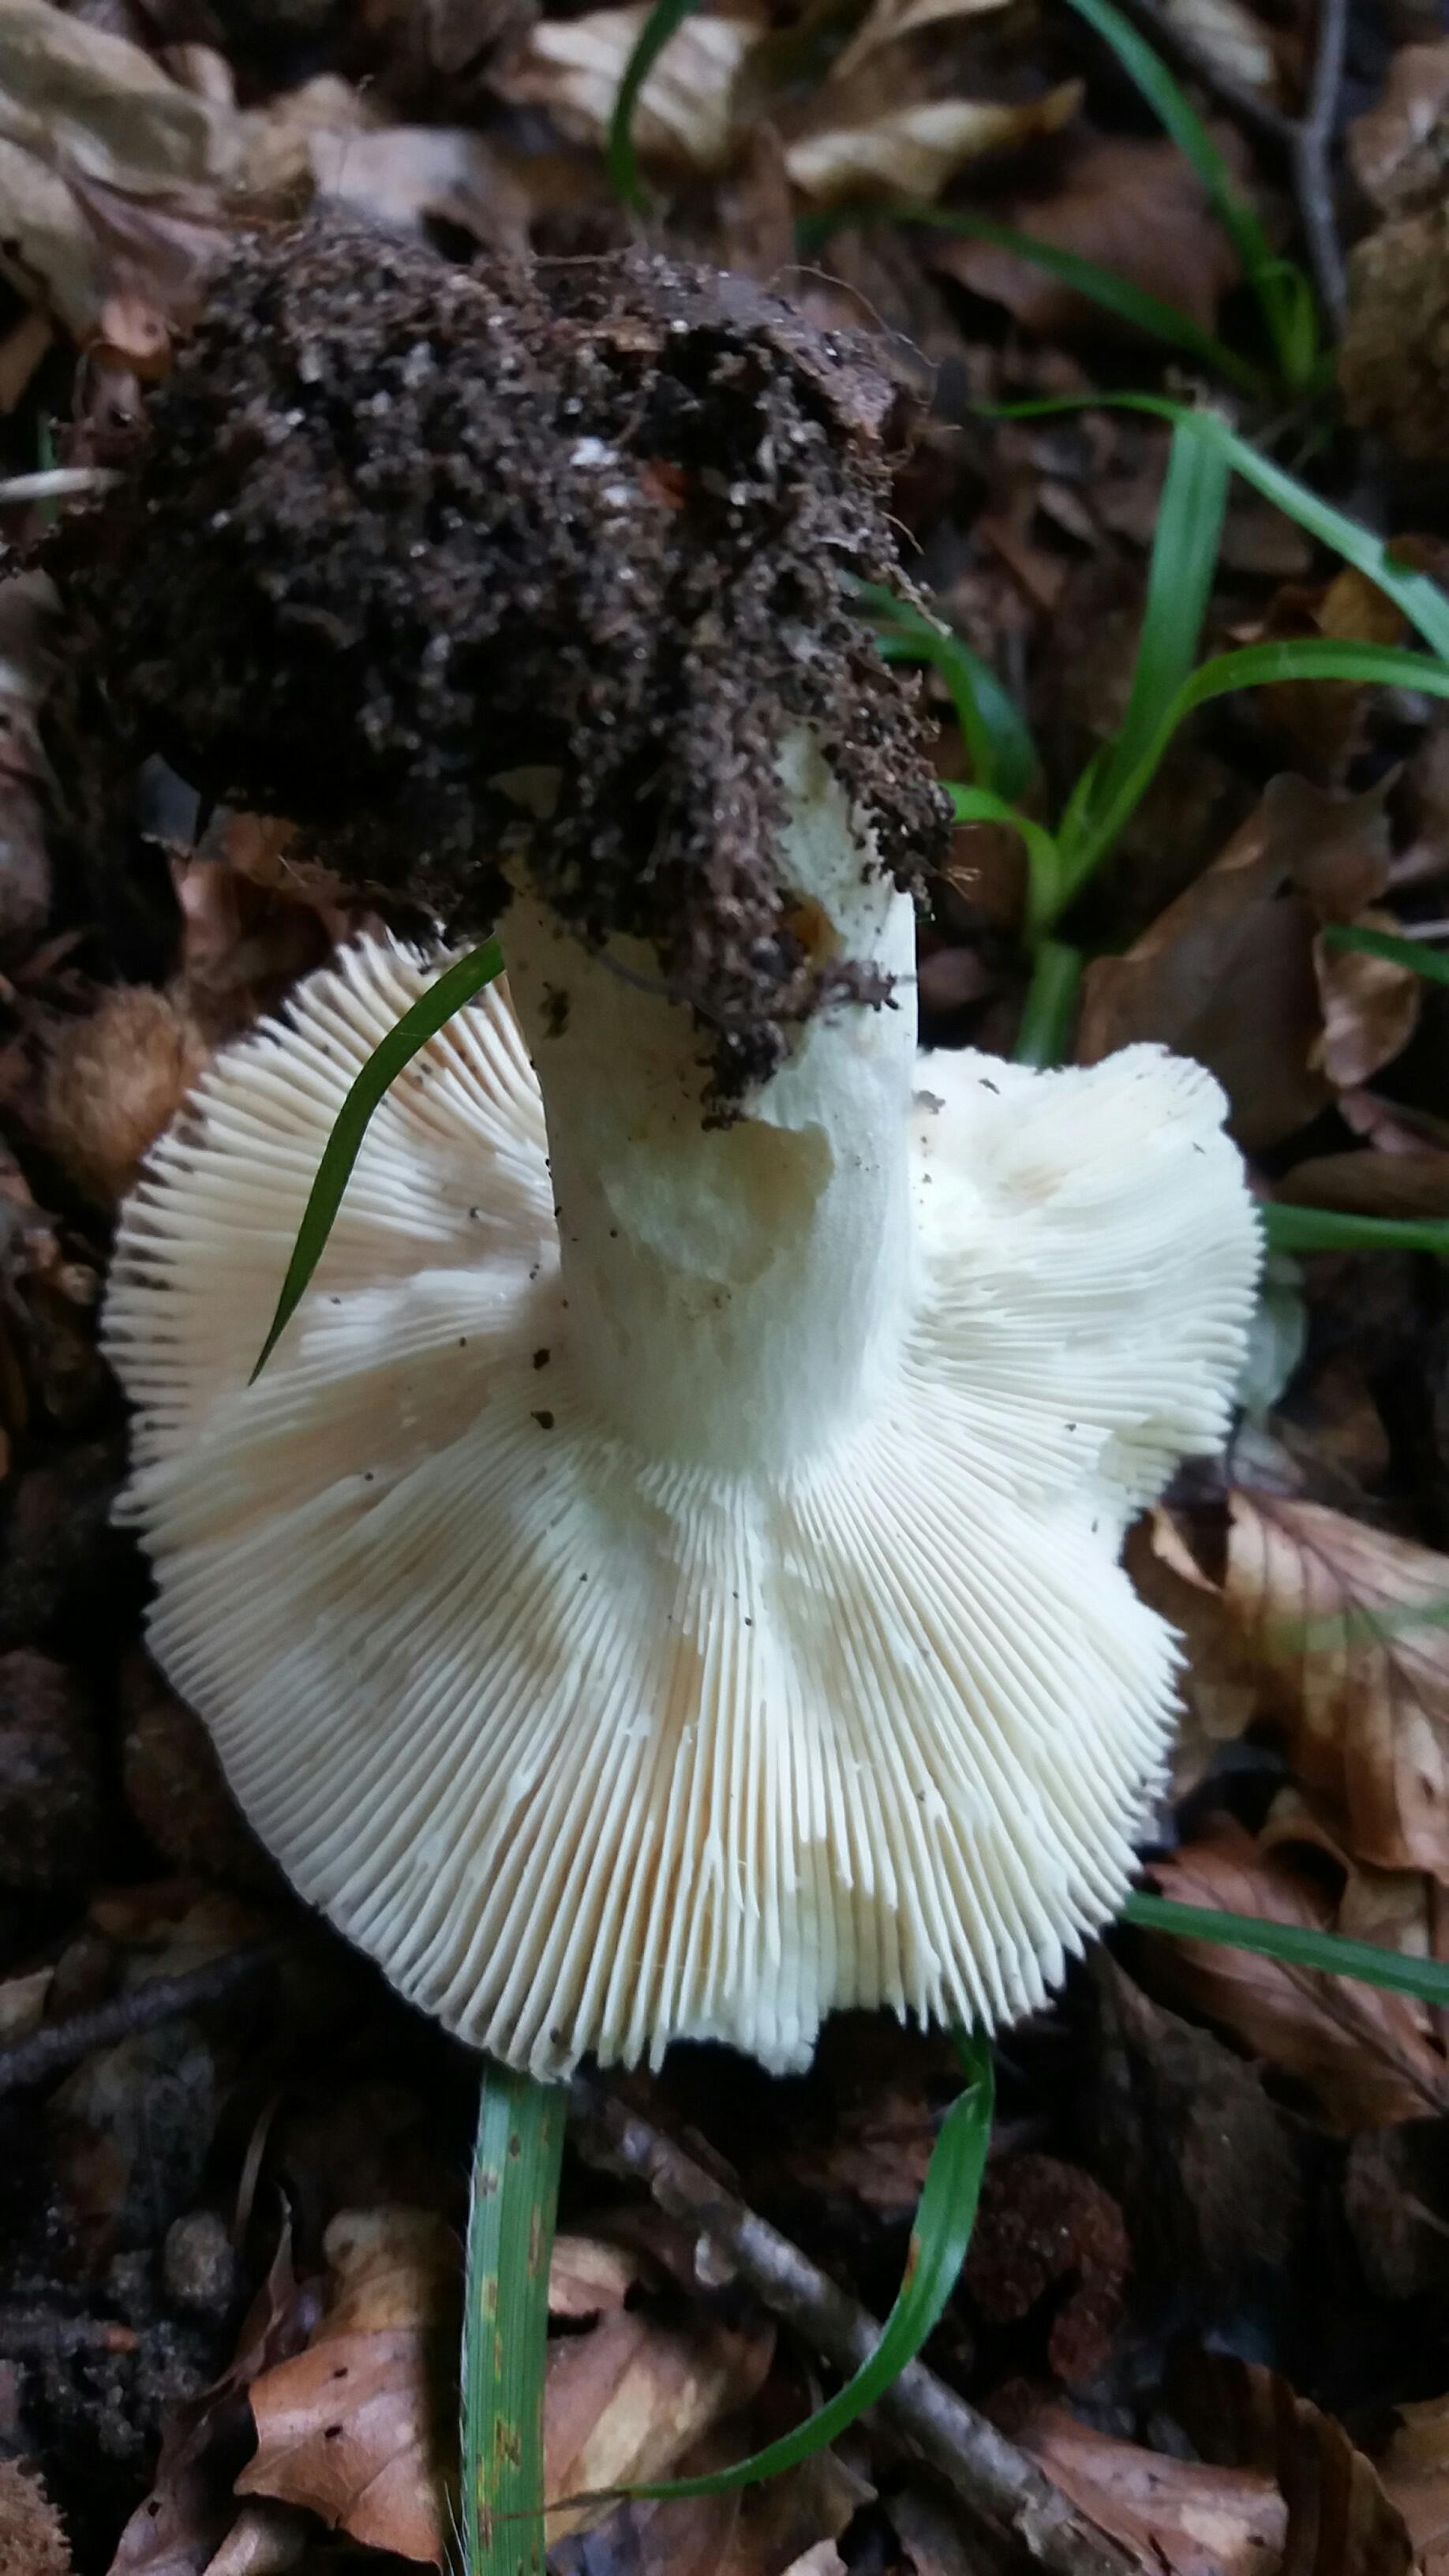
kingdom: Fungi
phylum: Basidiomycota
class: Agaricomycetes
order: Russulales
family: Russulaceae
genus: Russula
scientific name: Russula vesca
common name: spiselig skørhat
